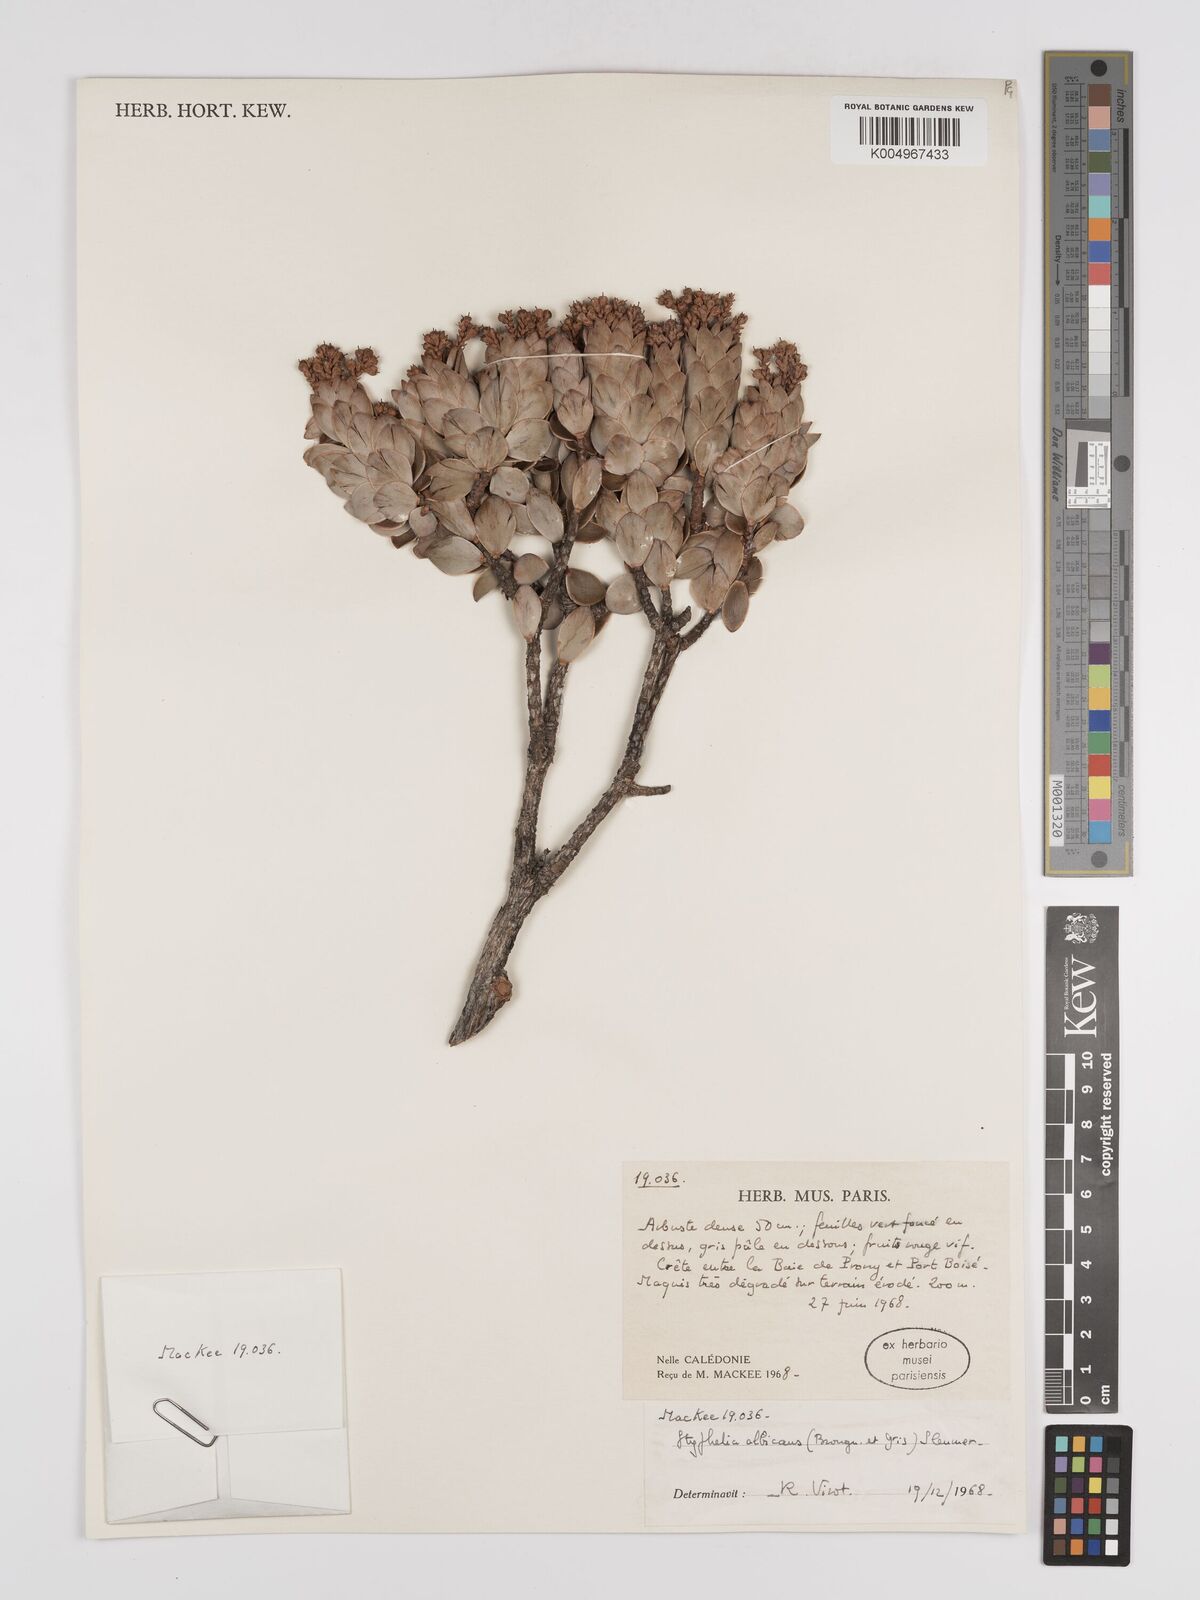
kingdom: Plantae
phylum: Tracheophyta
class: Magnoliopsida
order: Ericales
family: Ericaceae
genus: Cyathopsis
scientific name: Cyathopsis albicans
